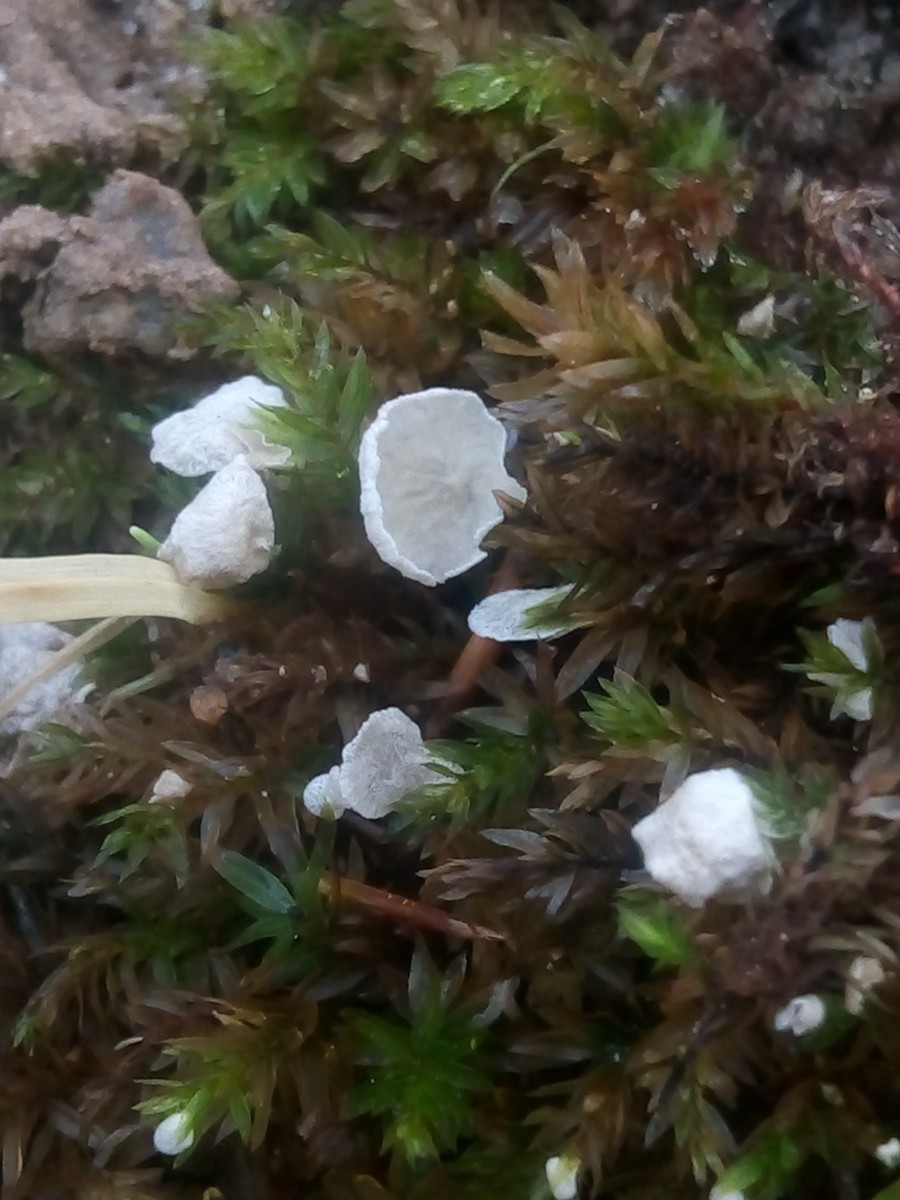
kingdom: Fungi
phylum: Basidiomycota
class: Agaricomycetes
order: Agaricales
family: Tricholomataceae
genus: Rimbachia
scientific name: Rimbachia arachnoidea
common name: Almindelig mosskål
